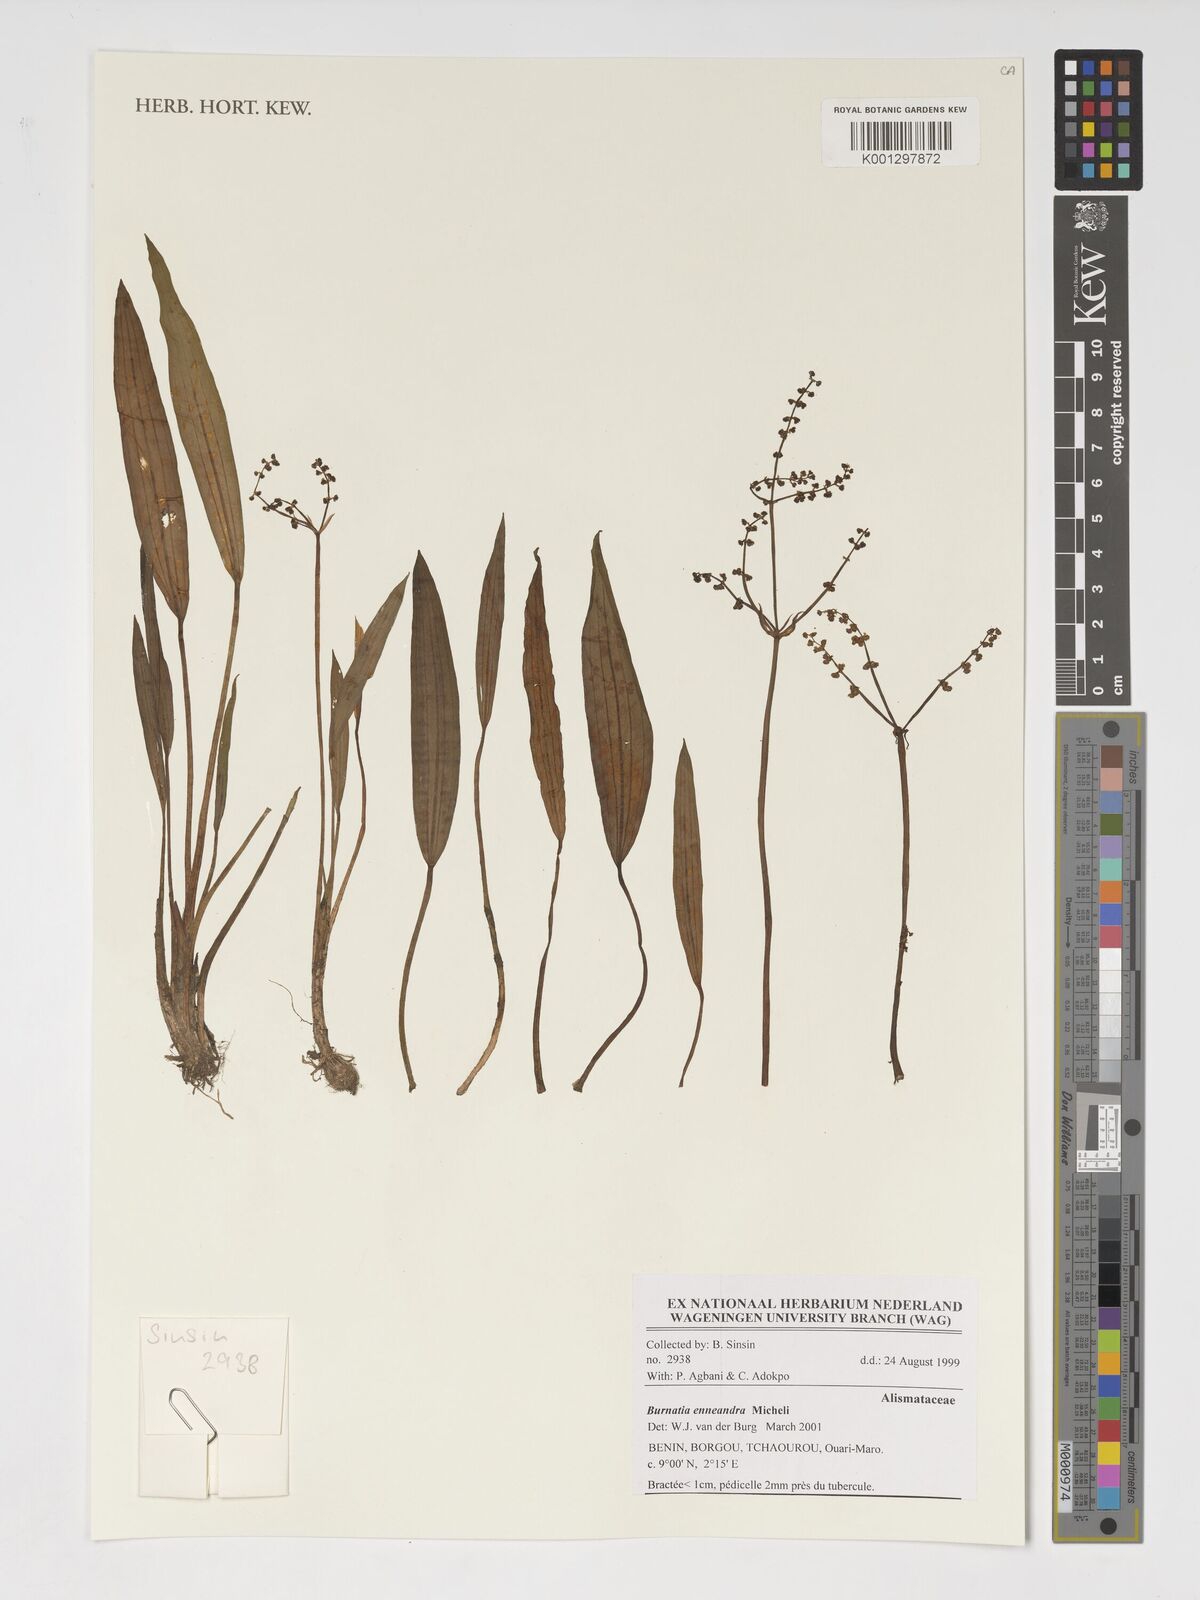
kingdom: Plantae
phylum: Tracheophyta
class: Liliopsida
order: Alismatales
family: Alismataceae
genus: Burnatia
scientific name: Burnatia enneandra
